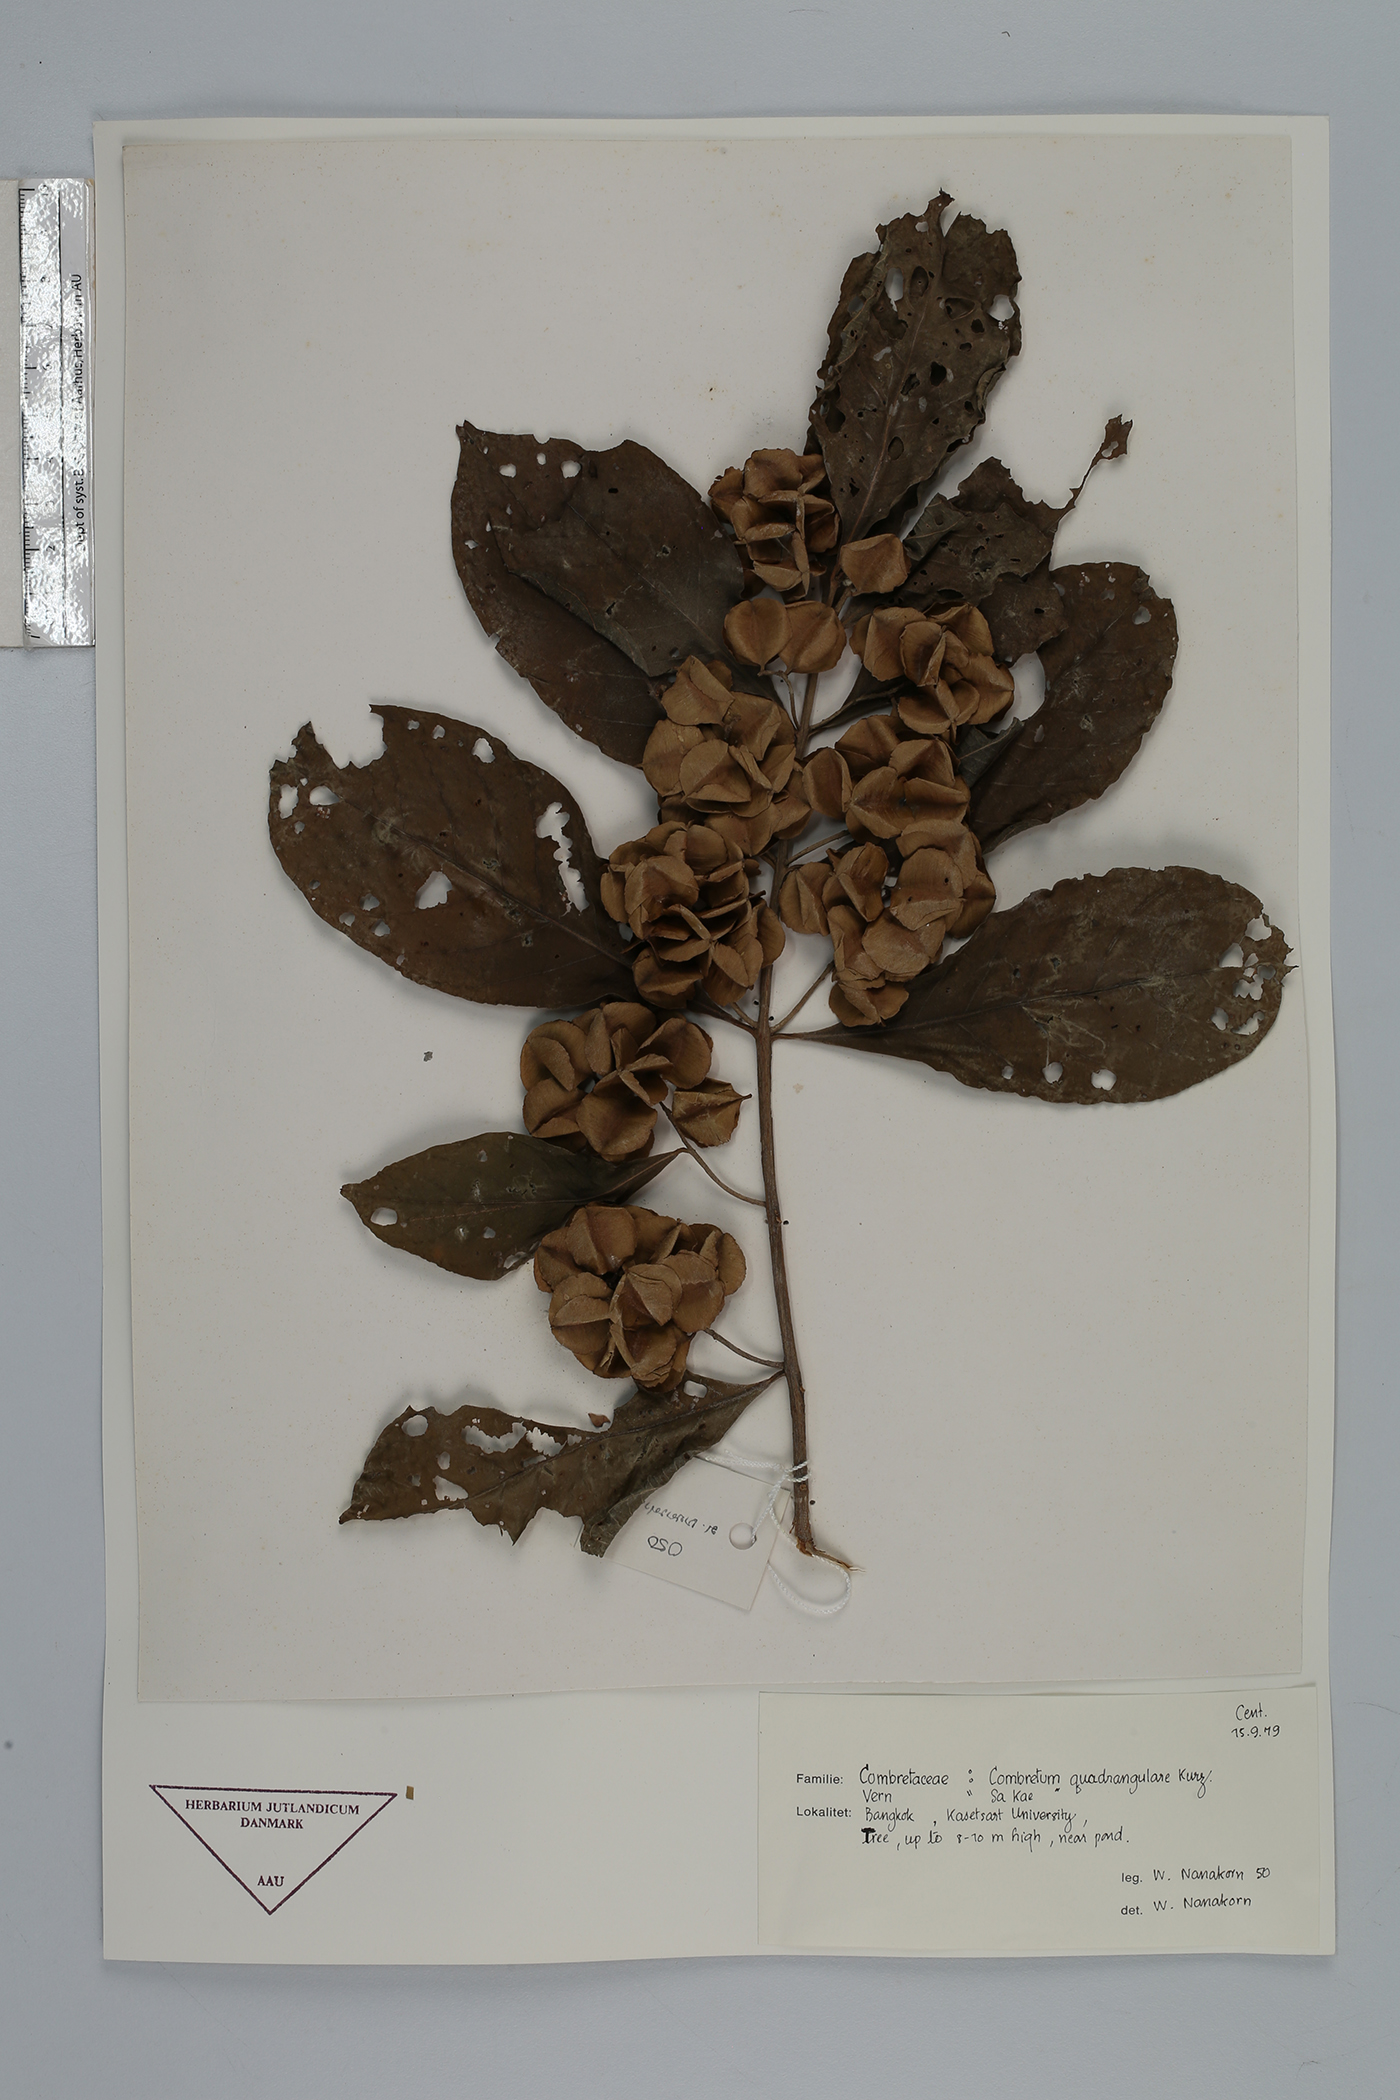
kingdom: Plantae
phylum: Tracheophyta
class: Magnoliopsida
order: Myrtales
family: Combretaceae
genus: Combretum
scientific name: Combretum quadrangulare
